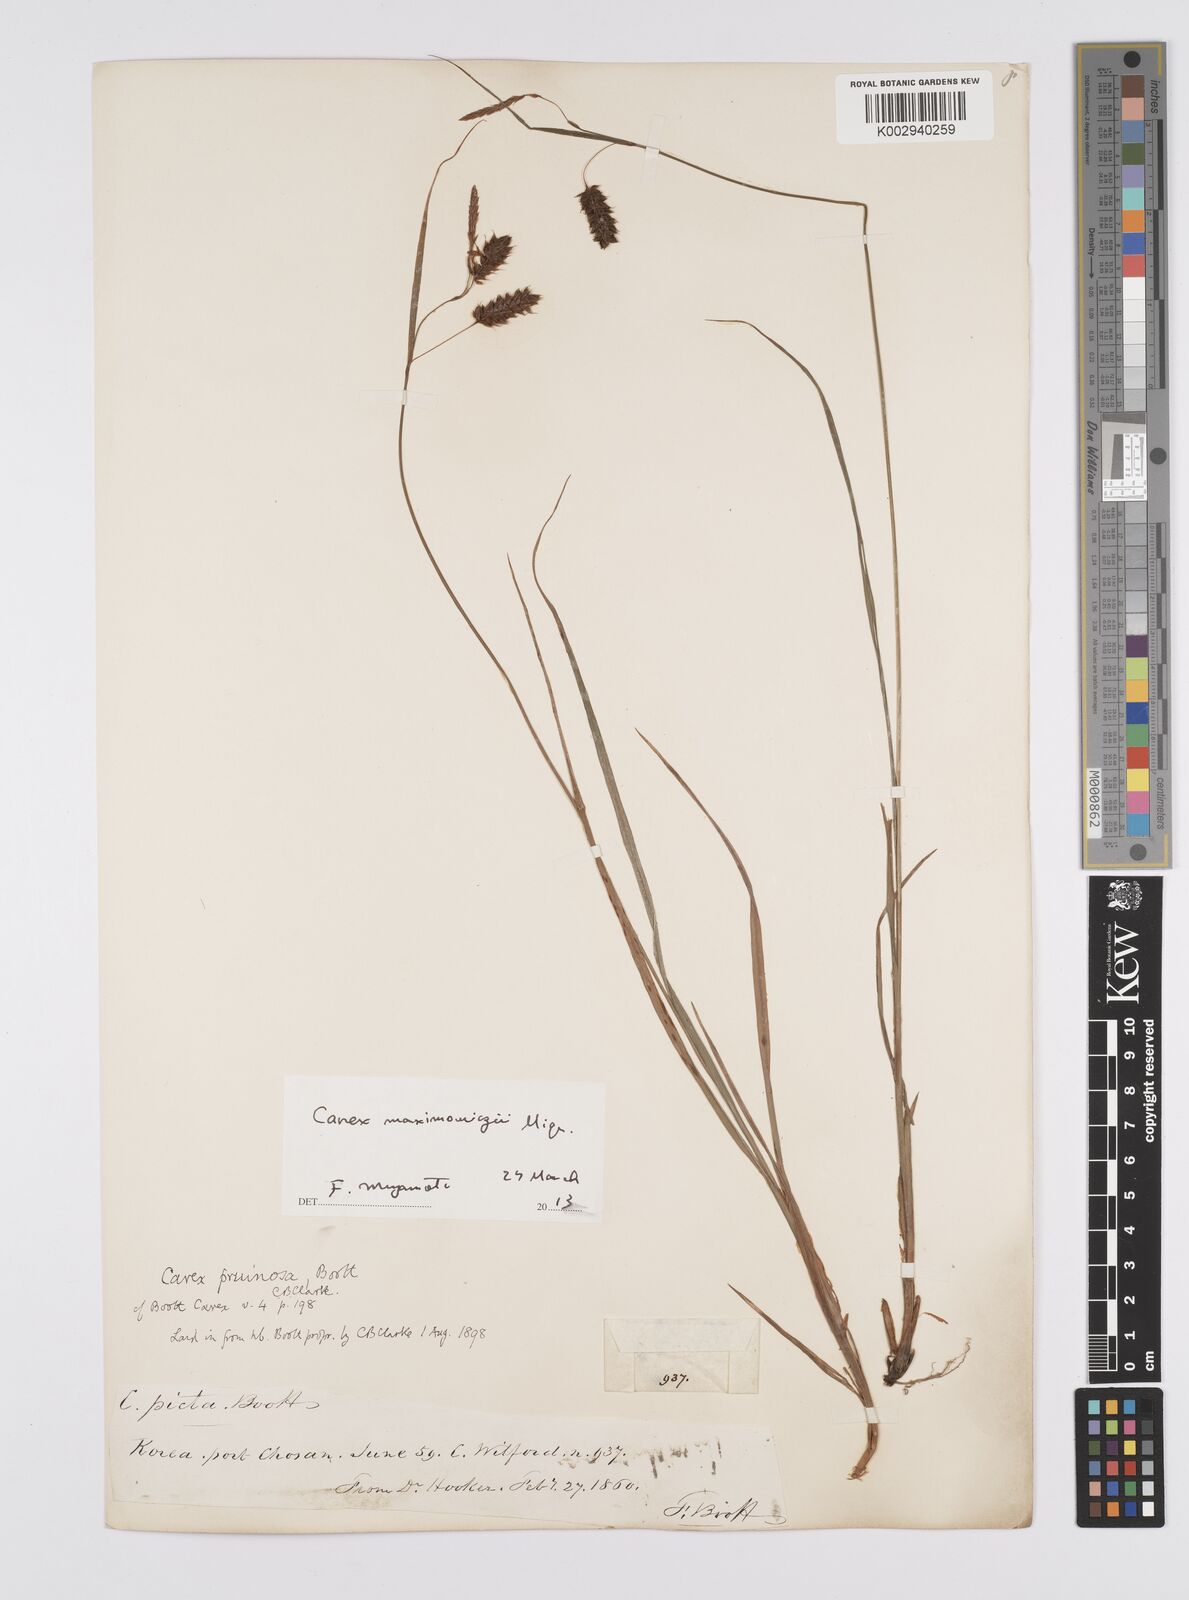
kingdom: Plantae
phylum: Tracheophyta
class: Liliopsida
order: Poales
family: Cyperaceae
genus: Carex
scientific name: Carex pruinosa
